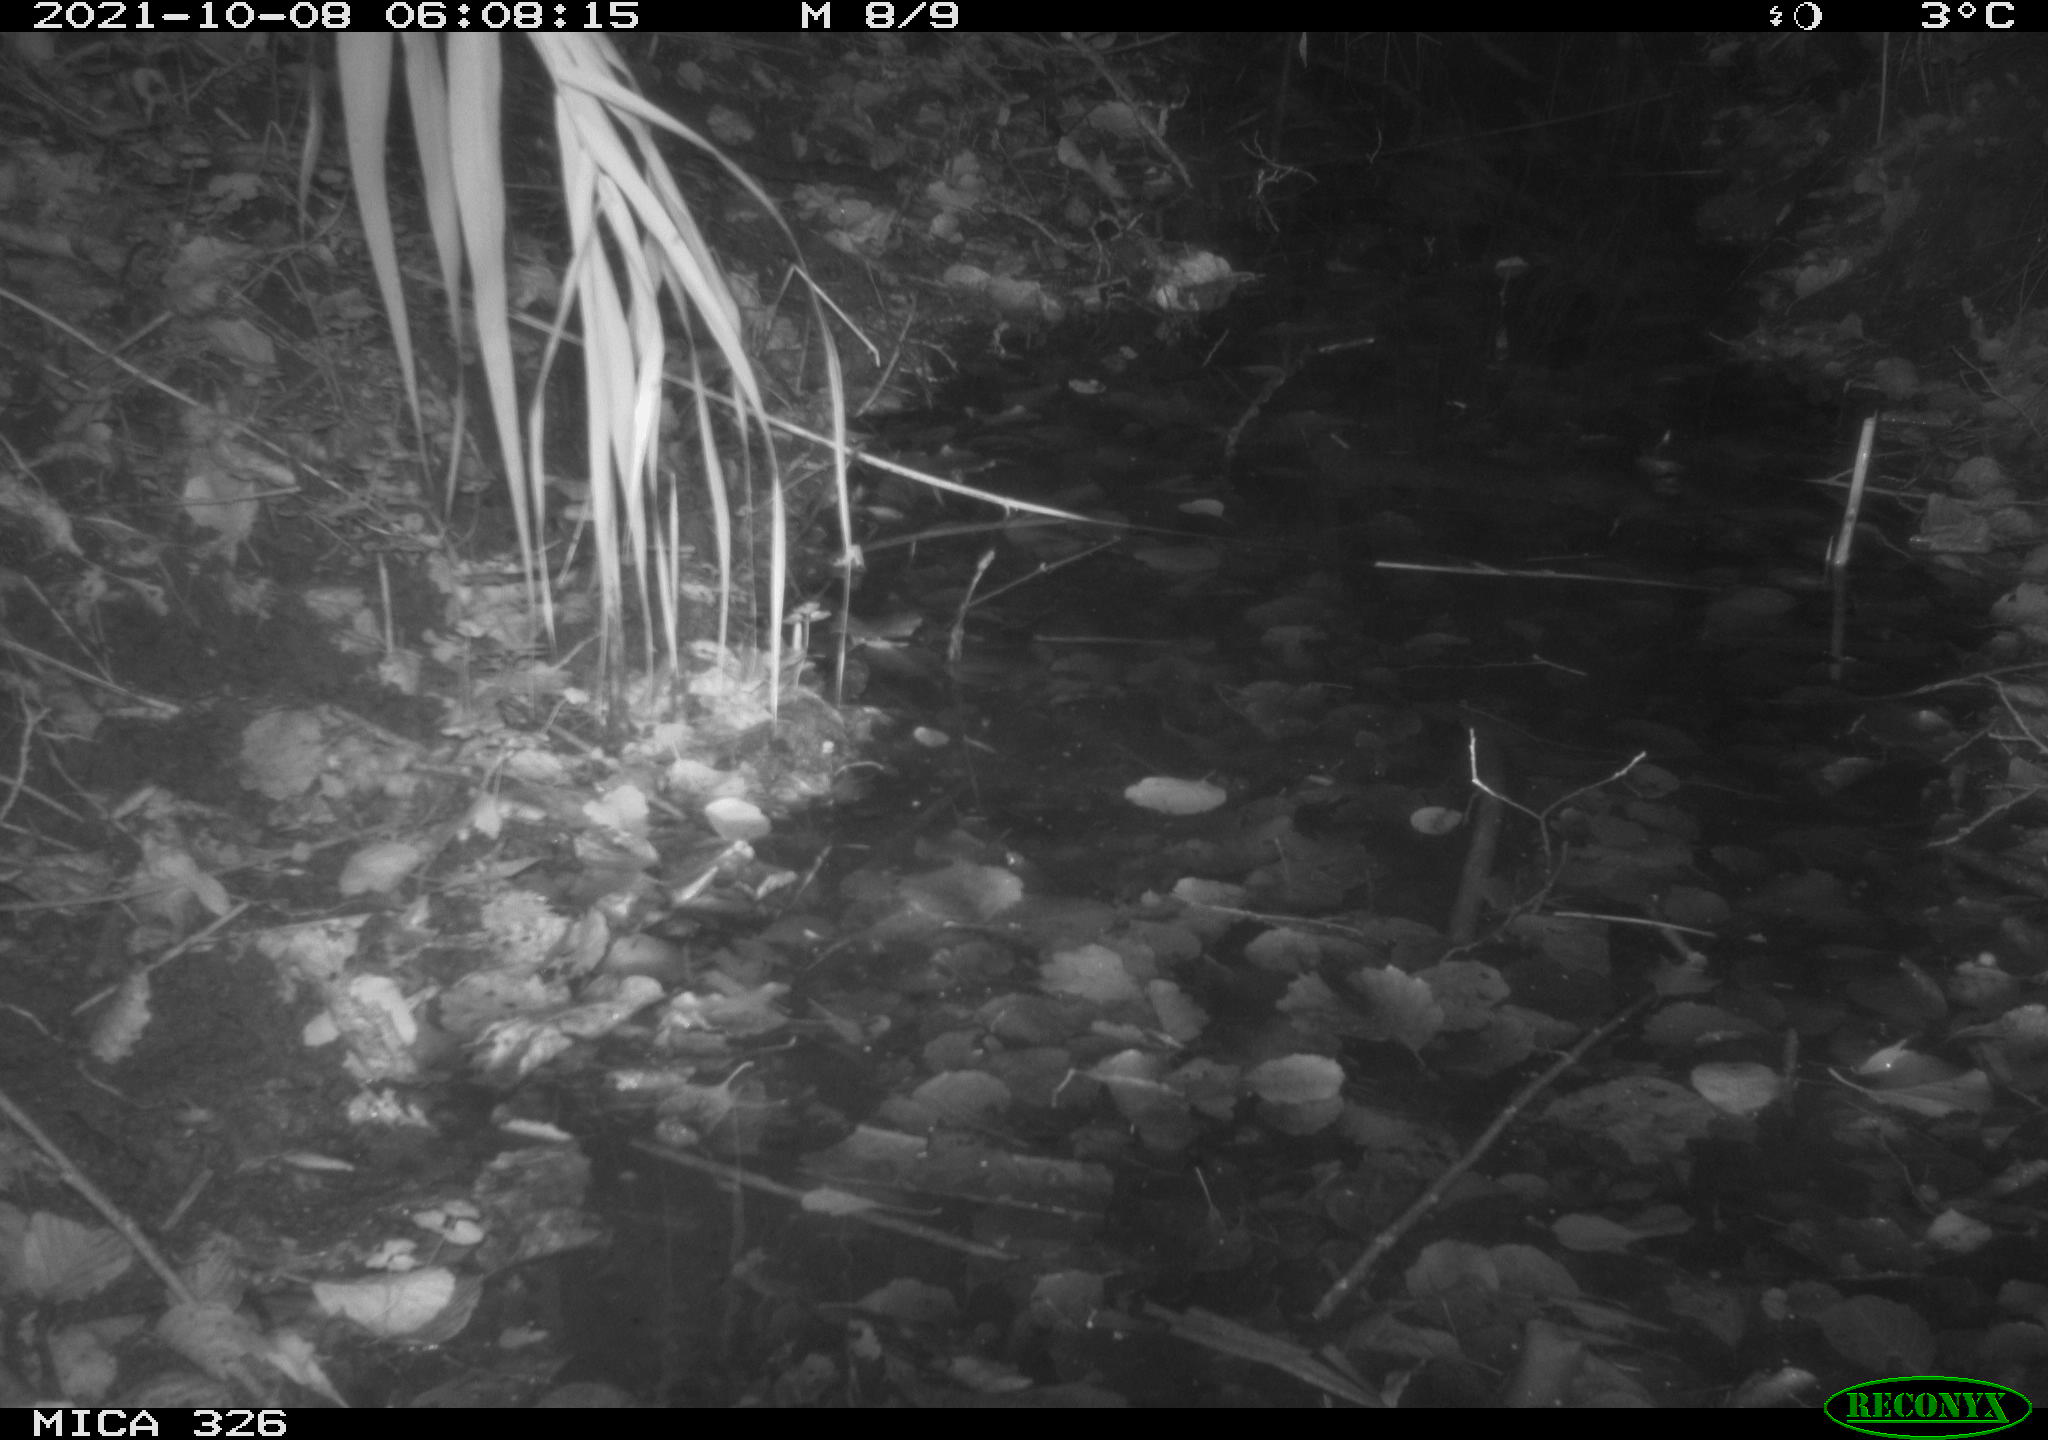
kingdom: Animalia
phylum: Chordata
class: Mammalia
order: Rodentia
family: Muridae
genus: Rattus
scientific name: Rattus norvegicus
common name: Brown rat
